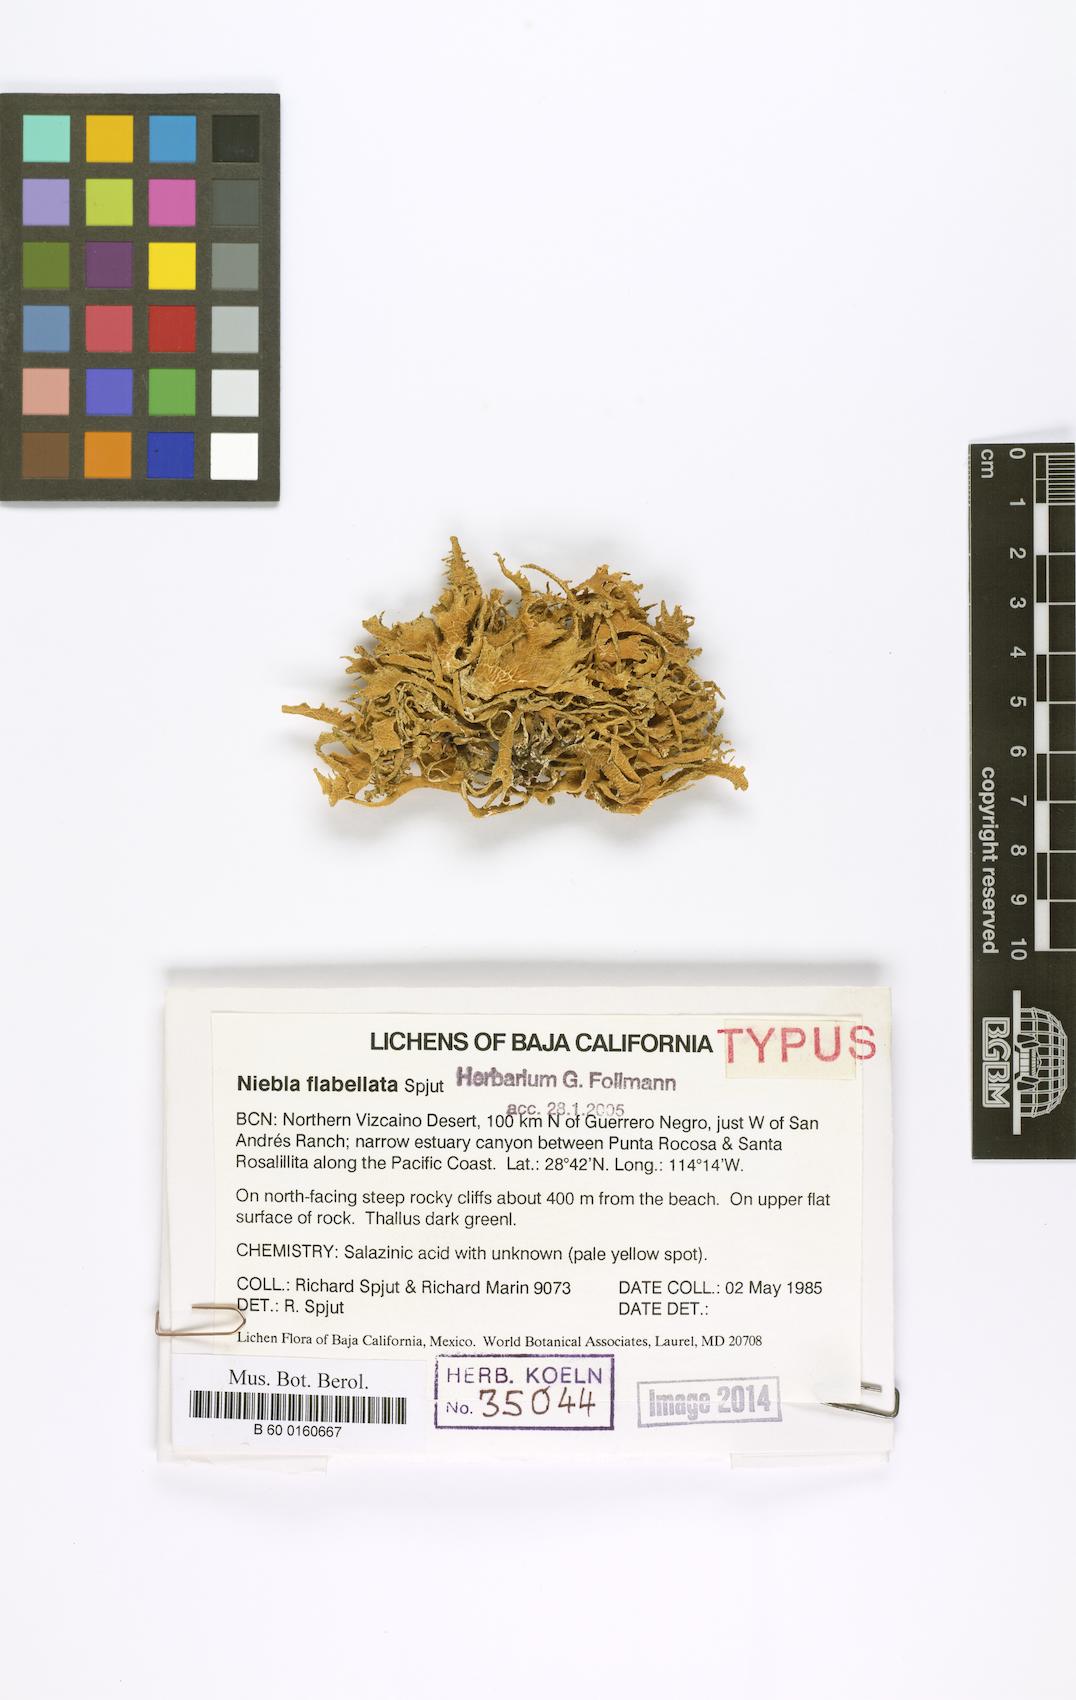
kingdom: Fungi
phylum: Ascomycota
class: Lecanoromycetes
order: Lecanorales
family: Ramalinaceae
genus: Niebla
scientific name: Niebla
